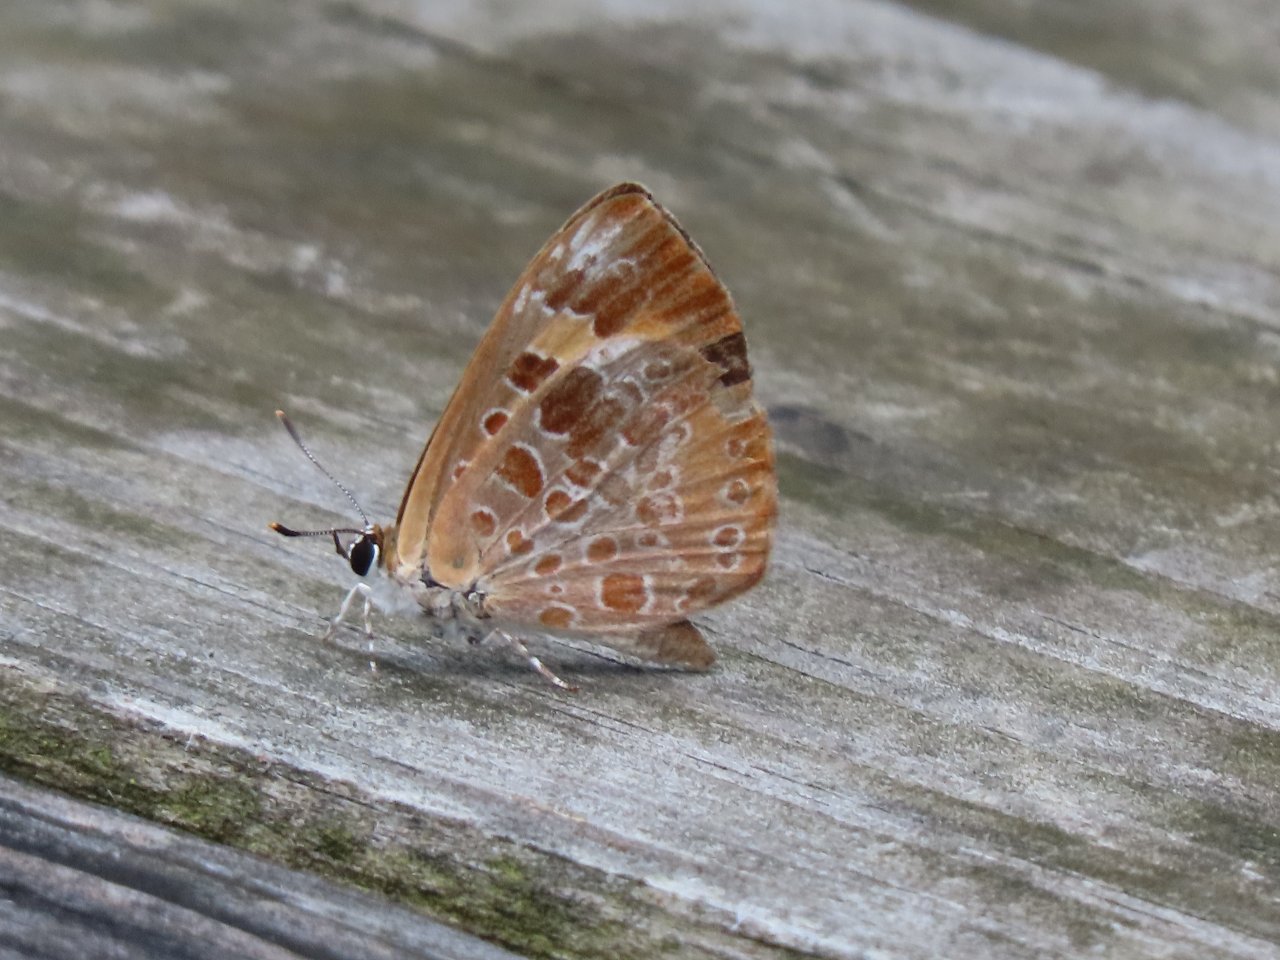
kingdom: Animalia
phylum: Arthropoda
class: Insecta
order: Lepidoptera
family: Lycaenidae
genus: Feniseca
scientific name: Feniseca tarquinius
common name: Harvester
